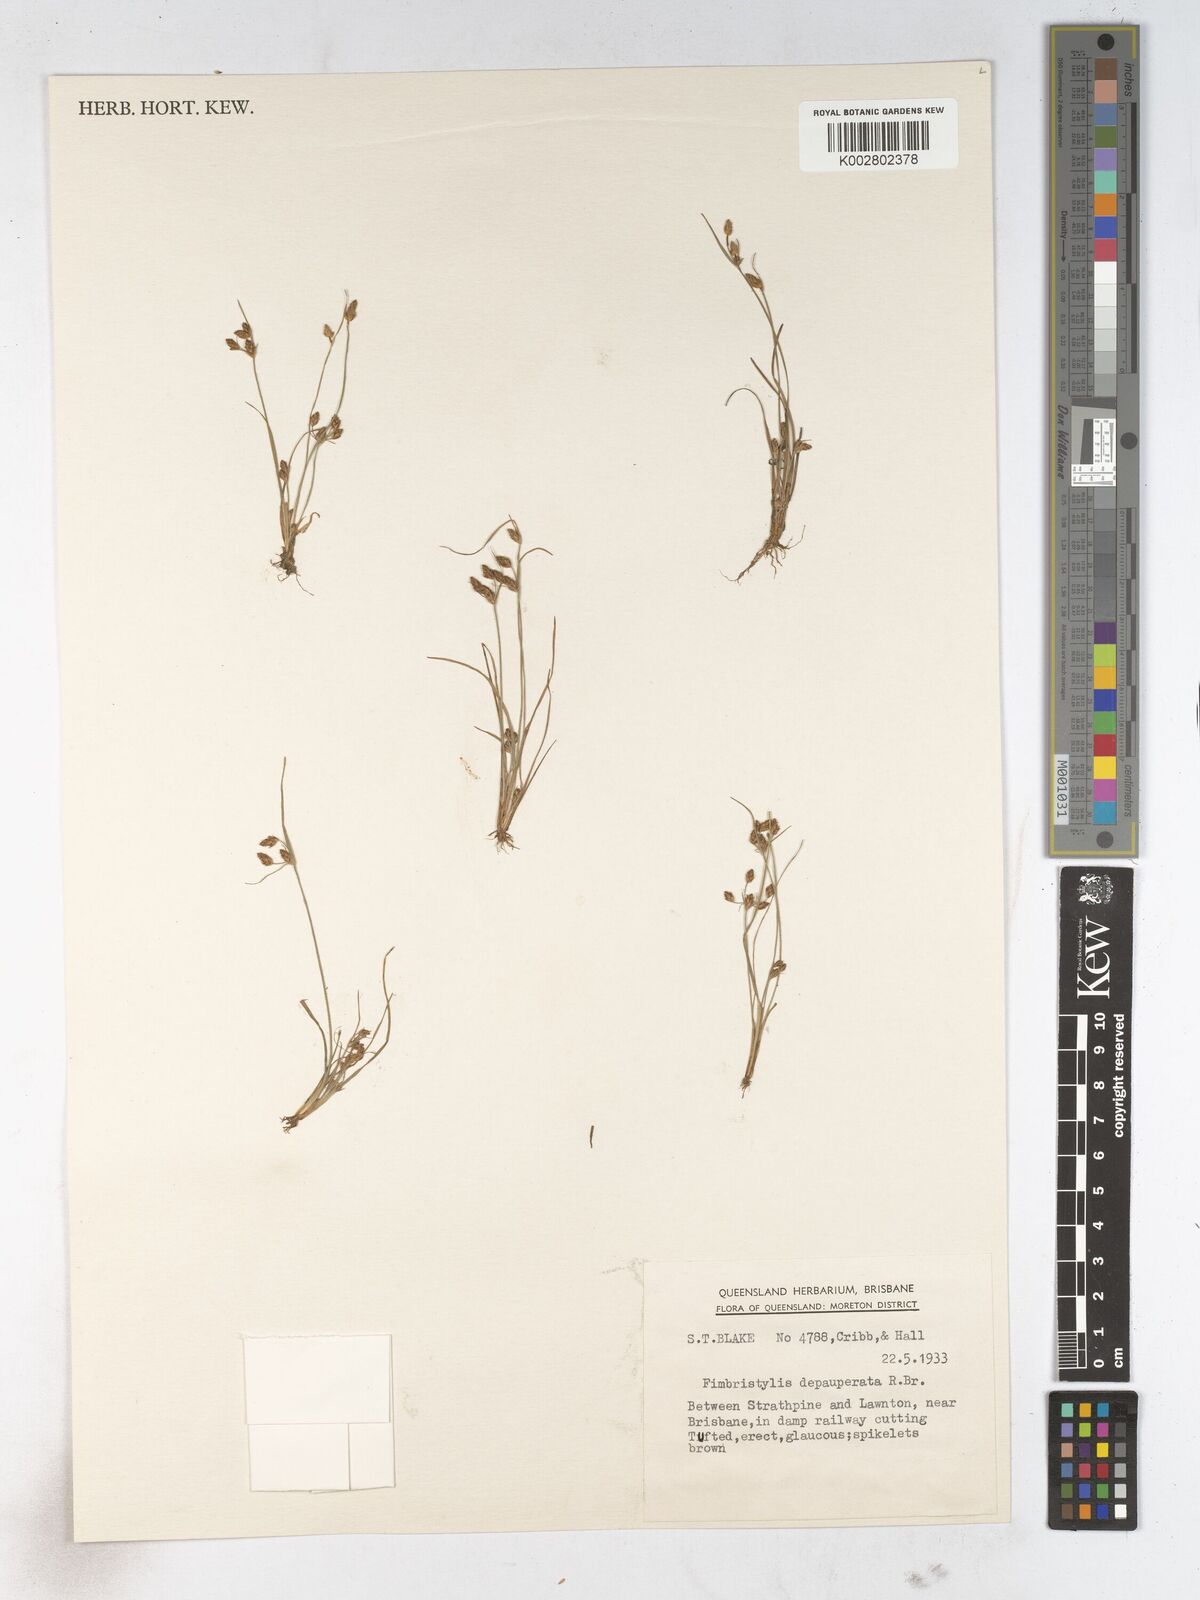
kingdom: Plantae
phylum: Tracheophyta
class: Liliopsida
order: Poales
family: Cyperaceae
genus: Fimbristylis
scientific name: Fimbristylis dichotoma
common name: Forked fimbry
